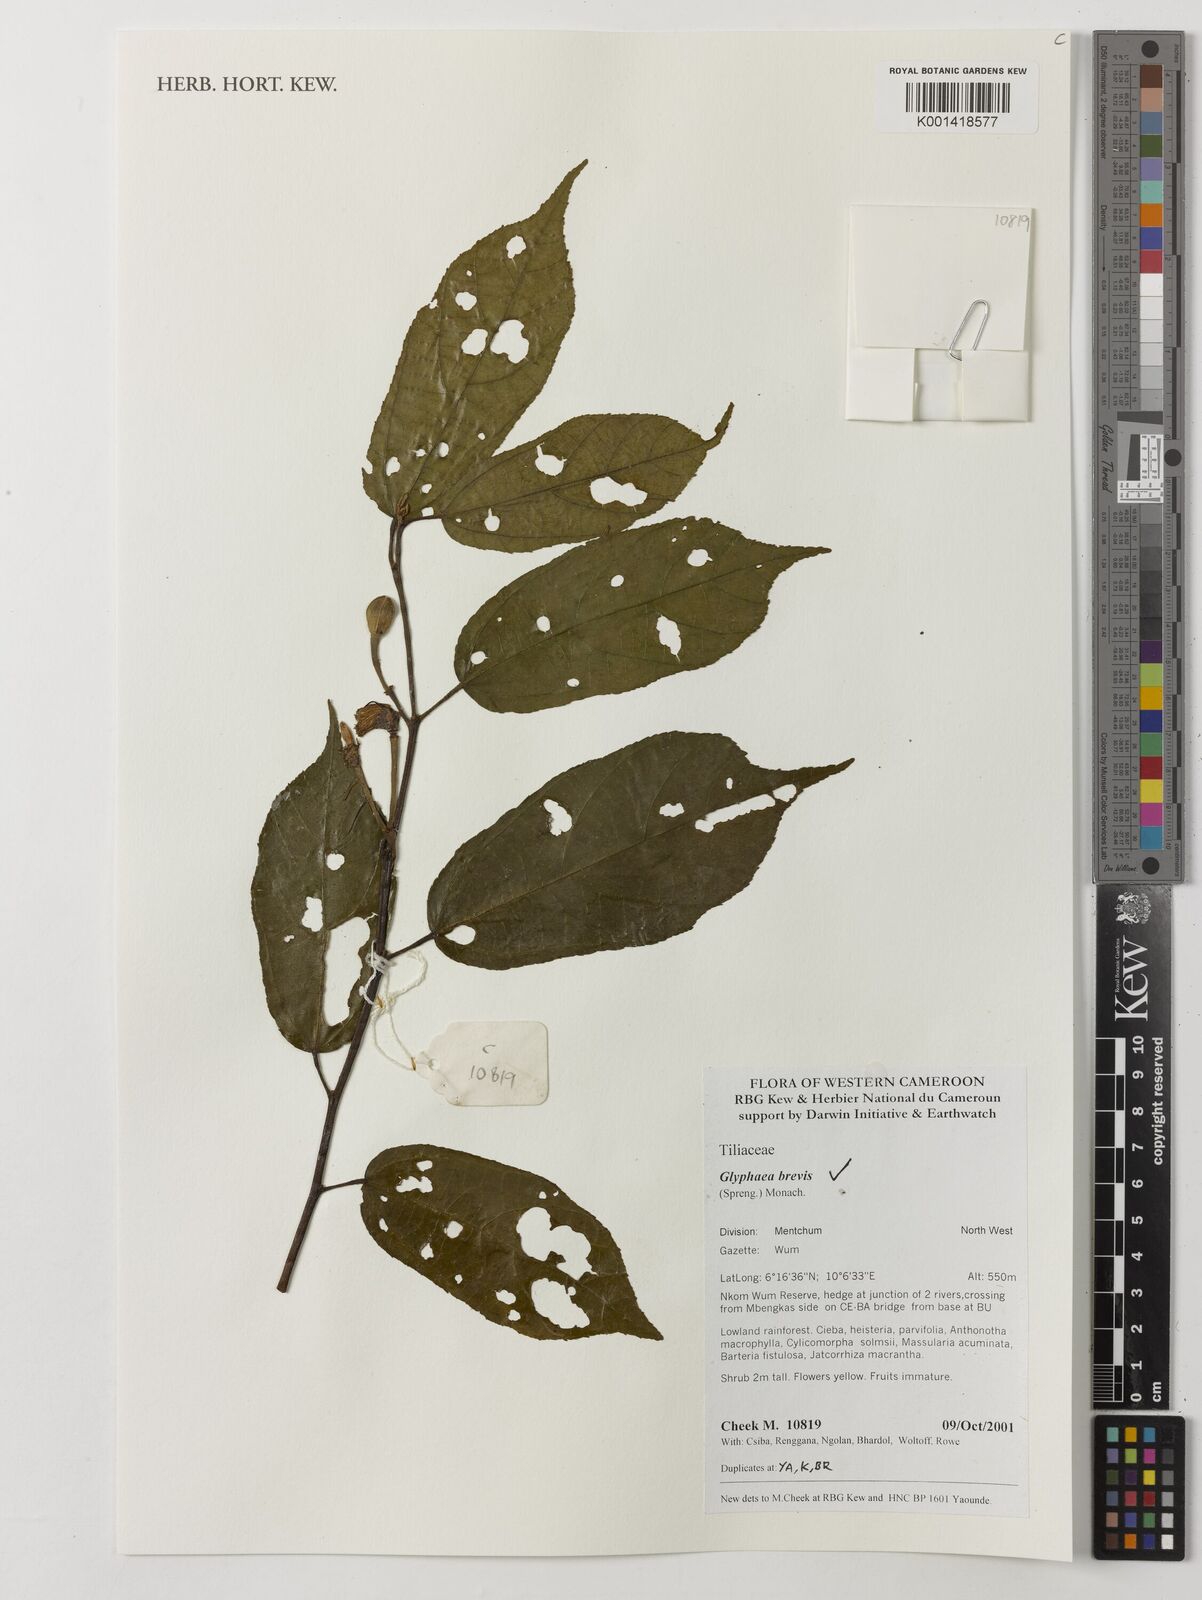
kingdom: Plantae
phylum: Tracheophyta
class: Magnoliopsida
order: Malvales
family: Malvaceae
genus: Glyphaea
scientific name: Glyphaea
